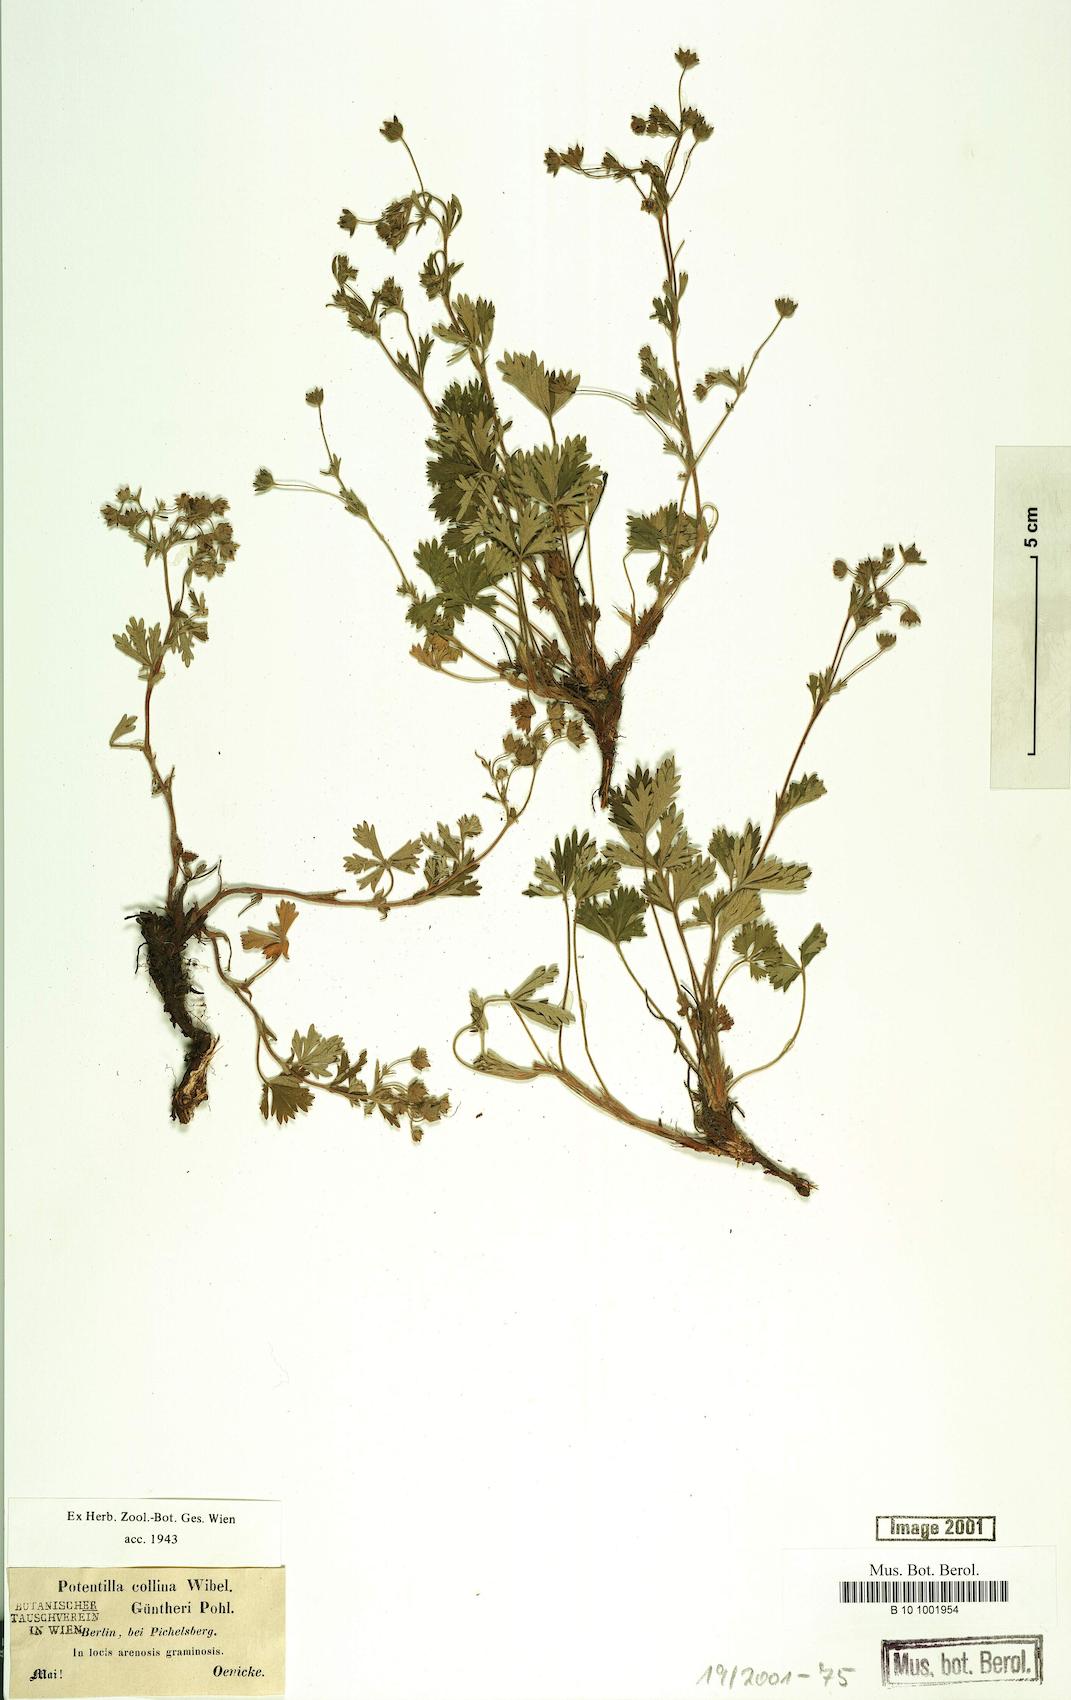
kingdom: Plantae
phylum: Tracheophyta
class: Magnoliopsida
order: Rosales
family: Rosaceae
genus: Potentilla
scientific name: Potentilla collina
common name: Palmleaf cinquefoil
